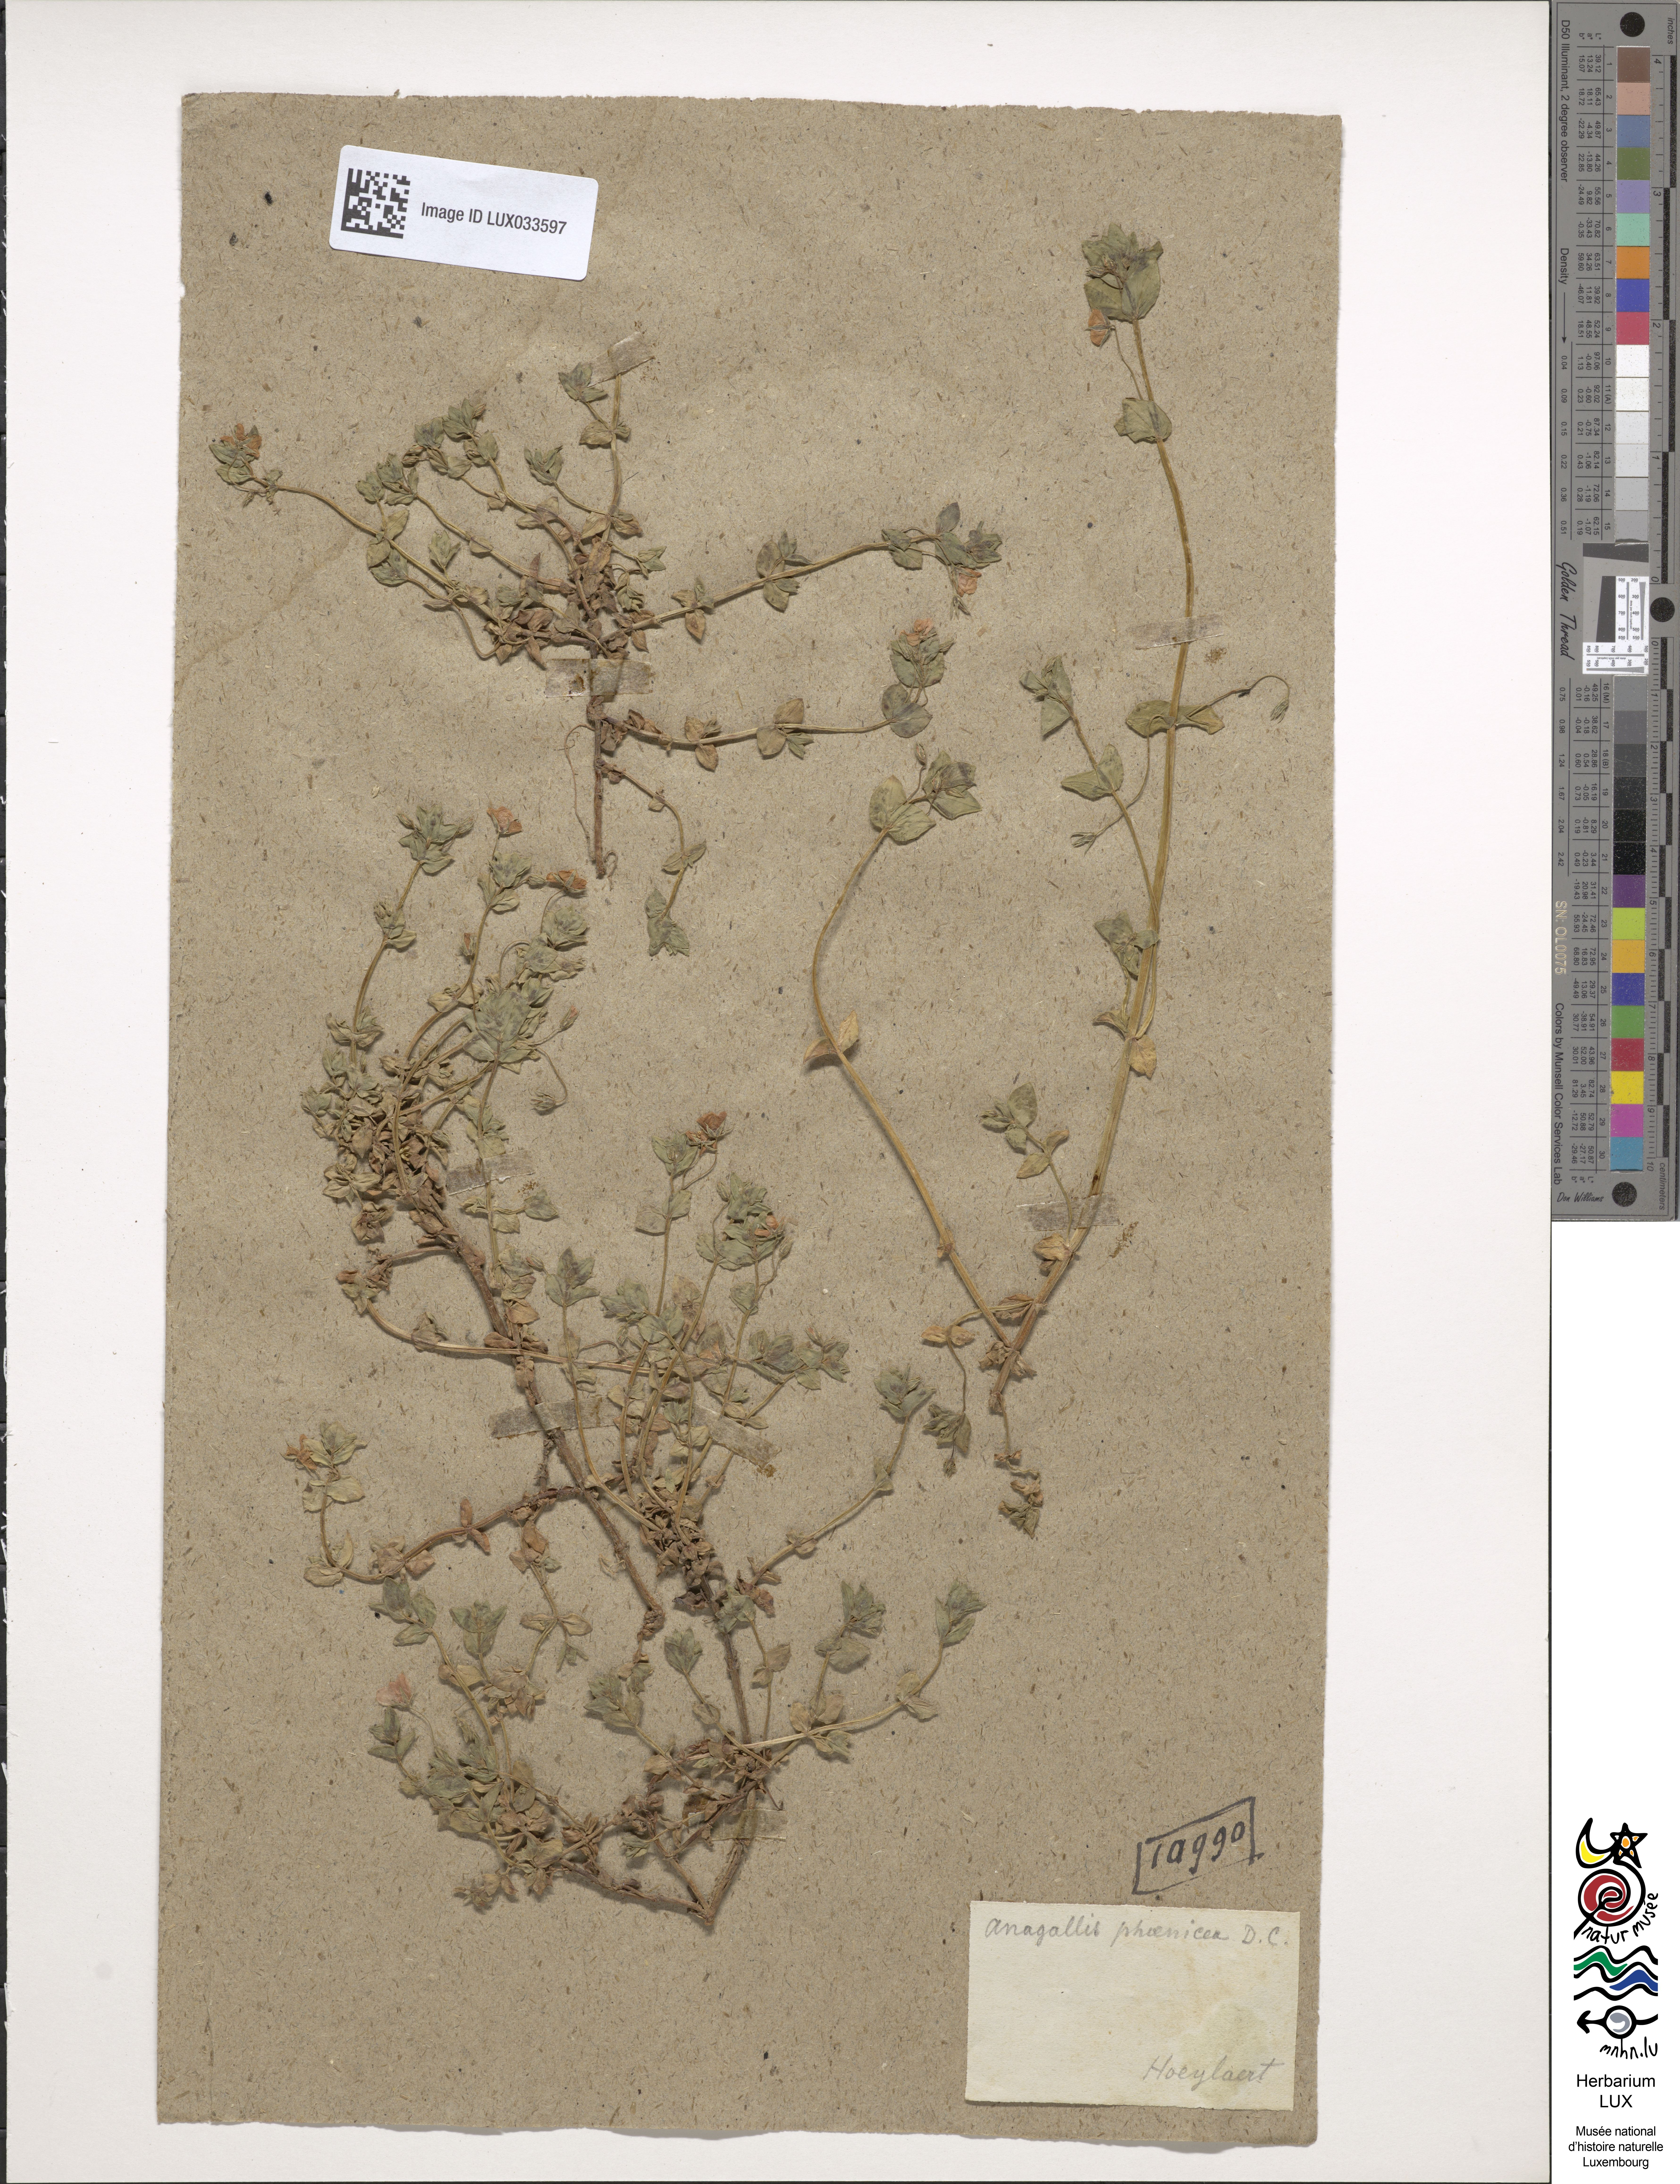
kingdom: Plantae
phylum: Tracheophyta
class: Magnoliopsida
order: Ericales
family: Primulaceae
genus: Lysimachia
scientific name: Lysimachia arvensis
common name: Scarlet pimpernel
